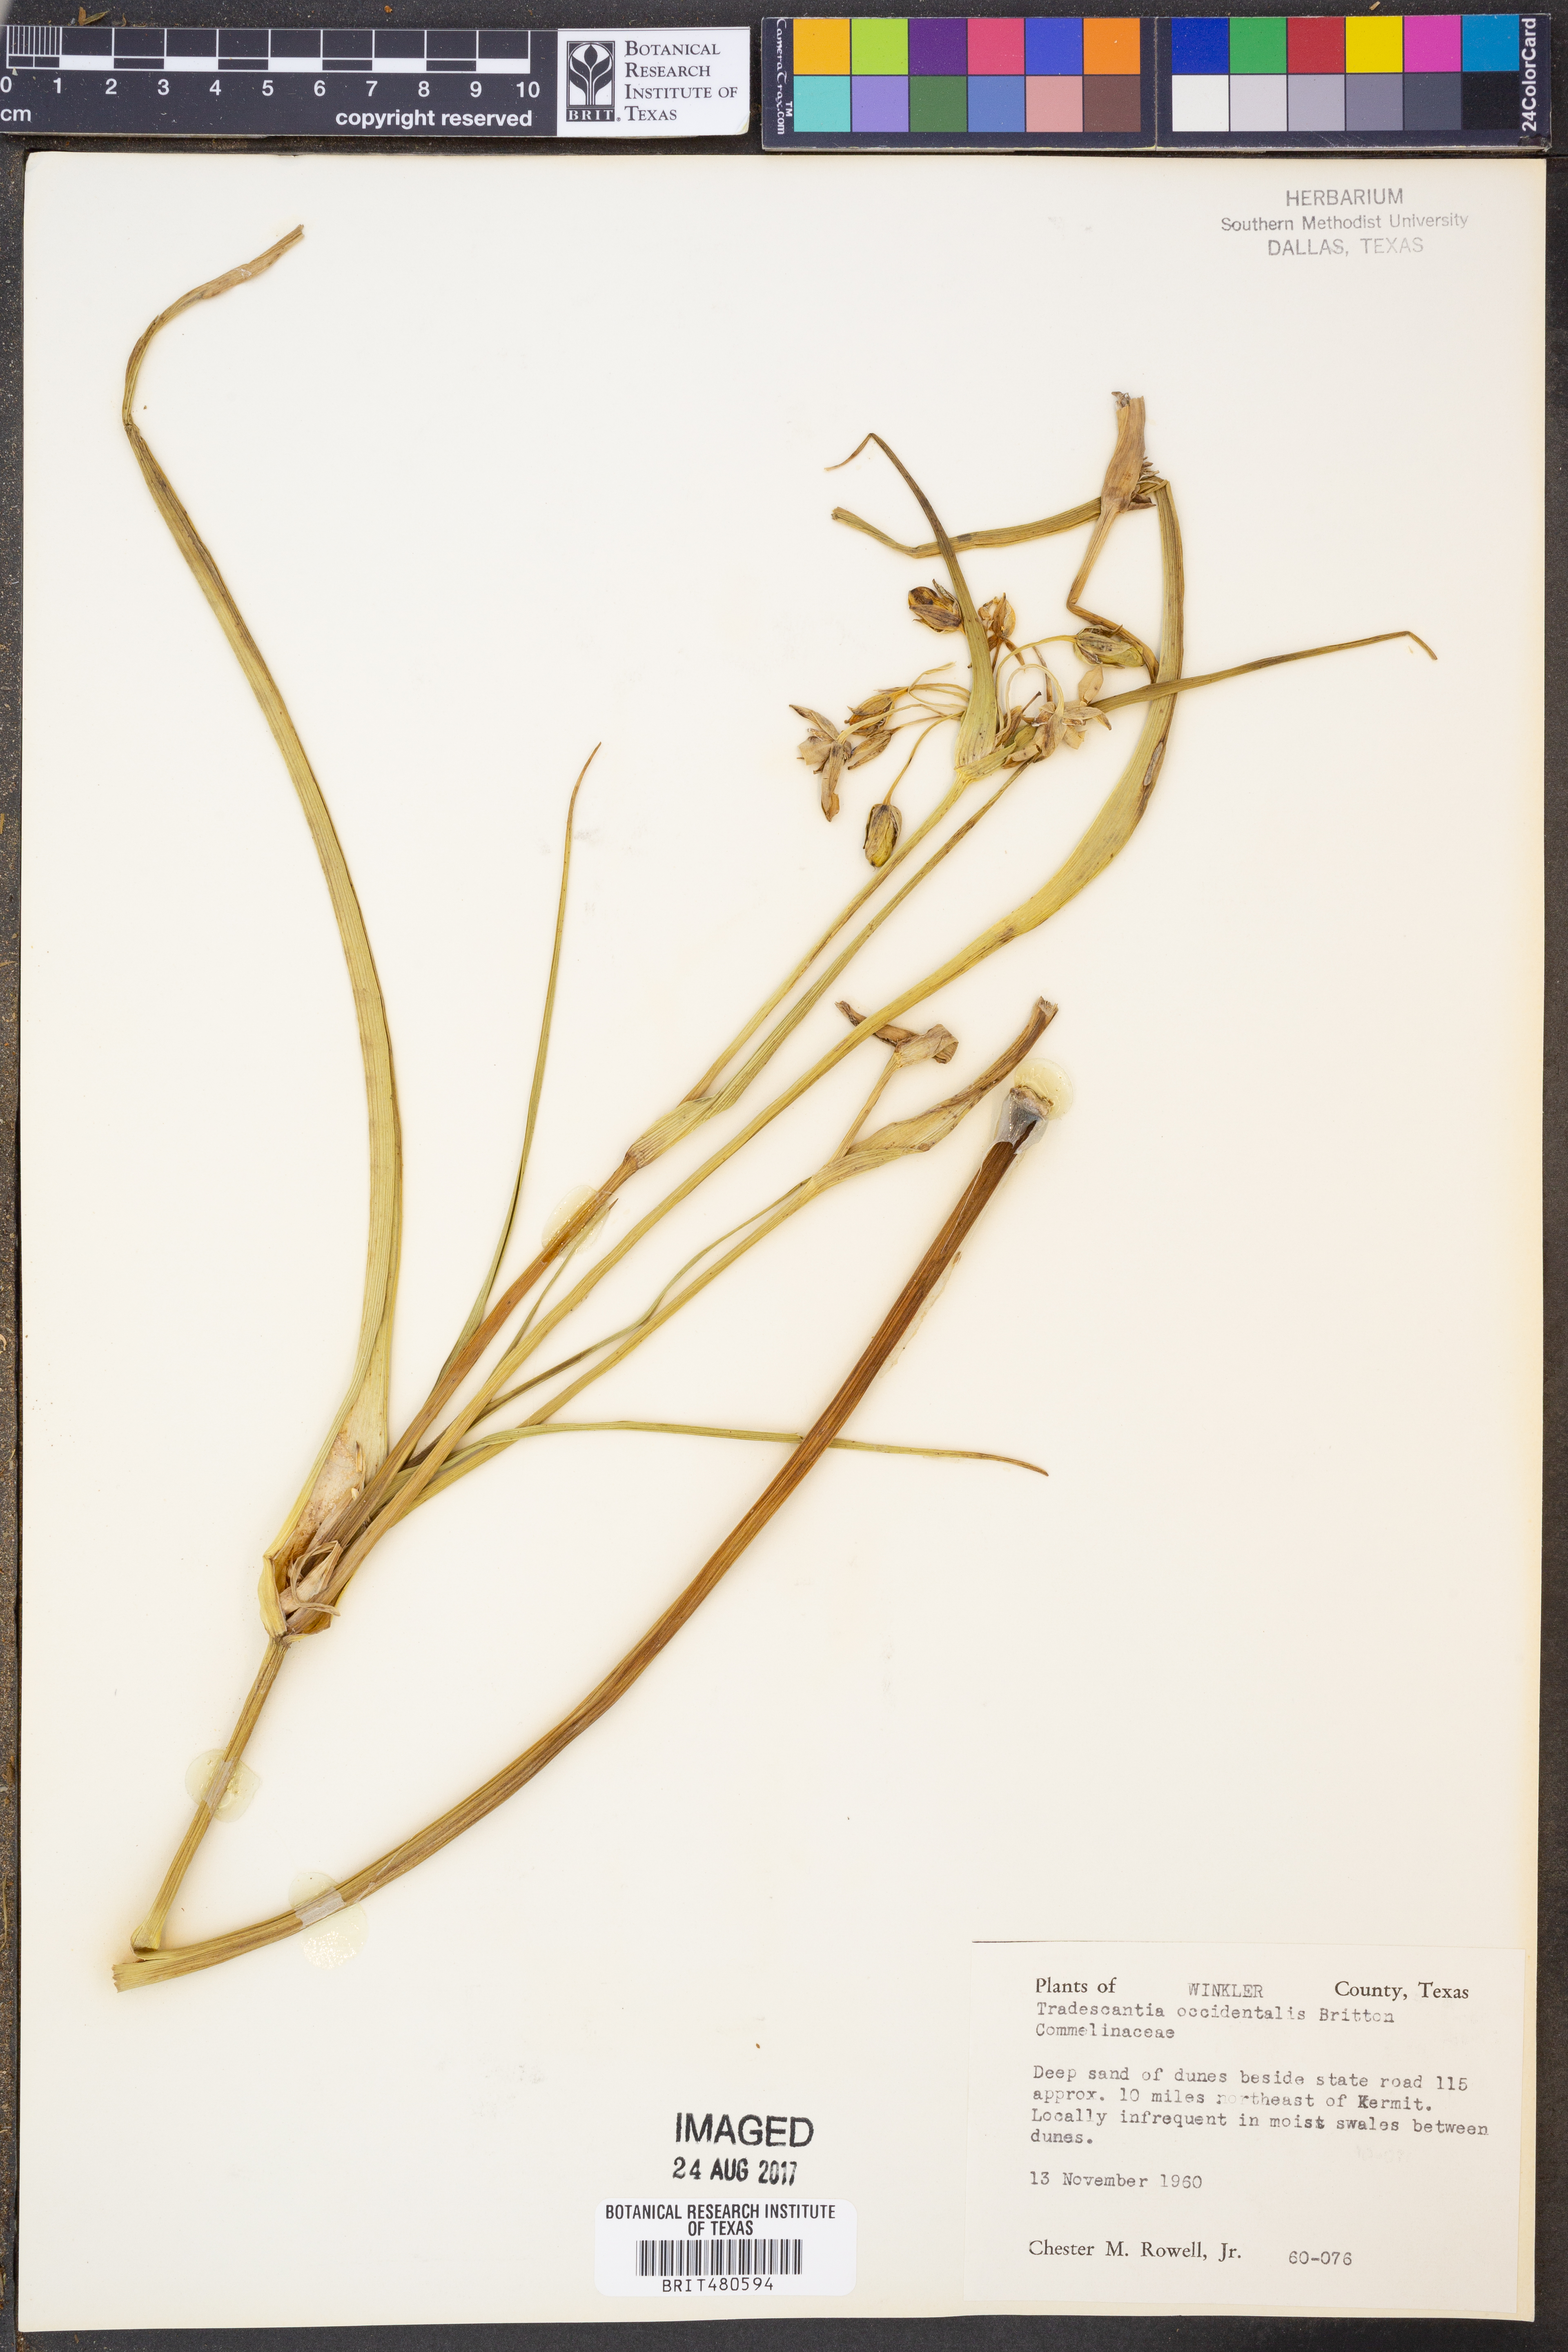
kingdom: Plantae
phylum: Tracheophyta
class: Liliopsida
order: Commelinales
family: Commelinaceae
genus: Tradescantia
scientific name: Tradescantia occidentalis
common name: Prairie spiderwort
